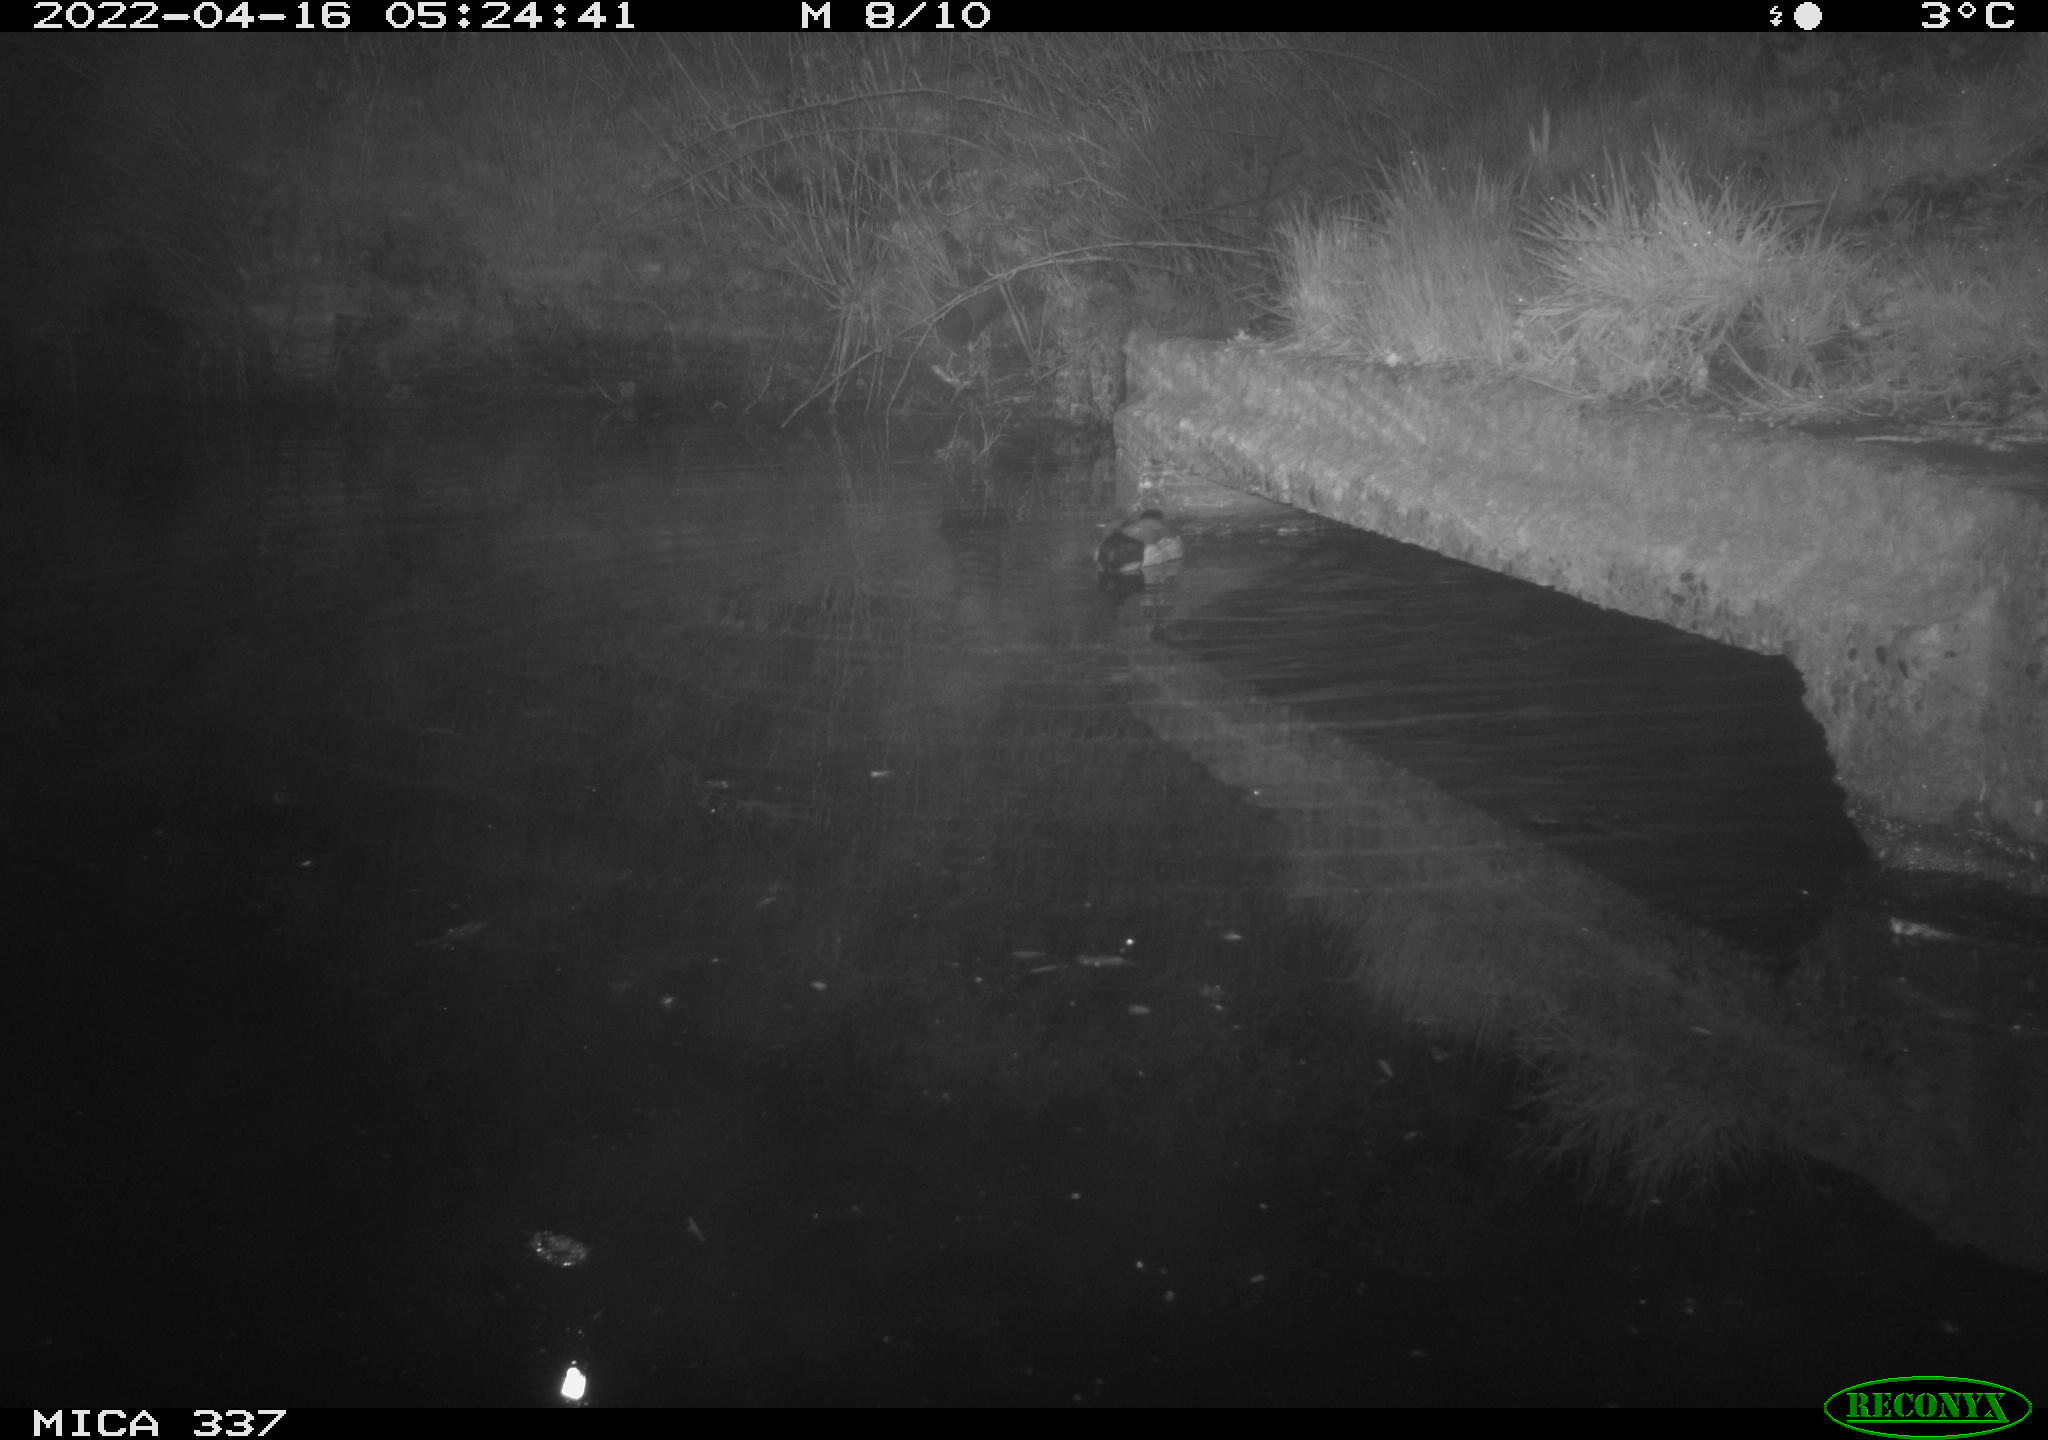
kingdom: Animalia
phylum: Chordata
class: Aves
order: Anseriformes
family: Anatidae
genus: Anas
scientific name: Anas platyrhynchos
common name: Mallard
